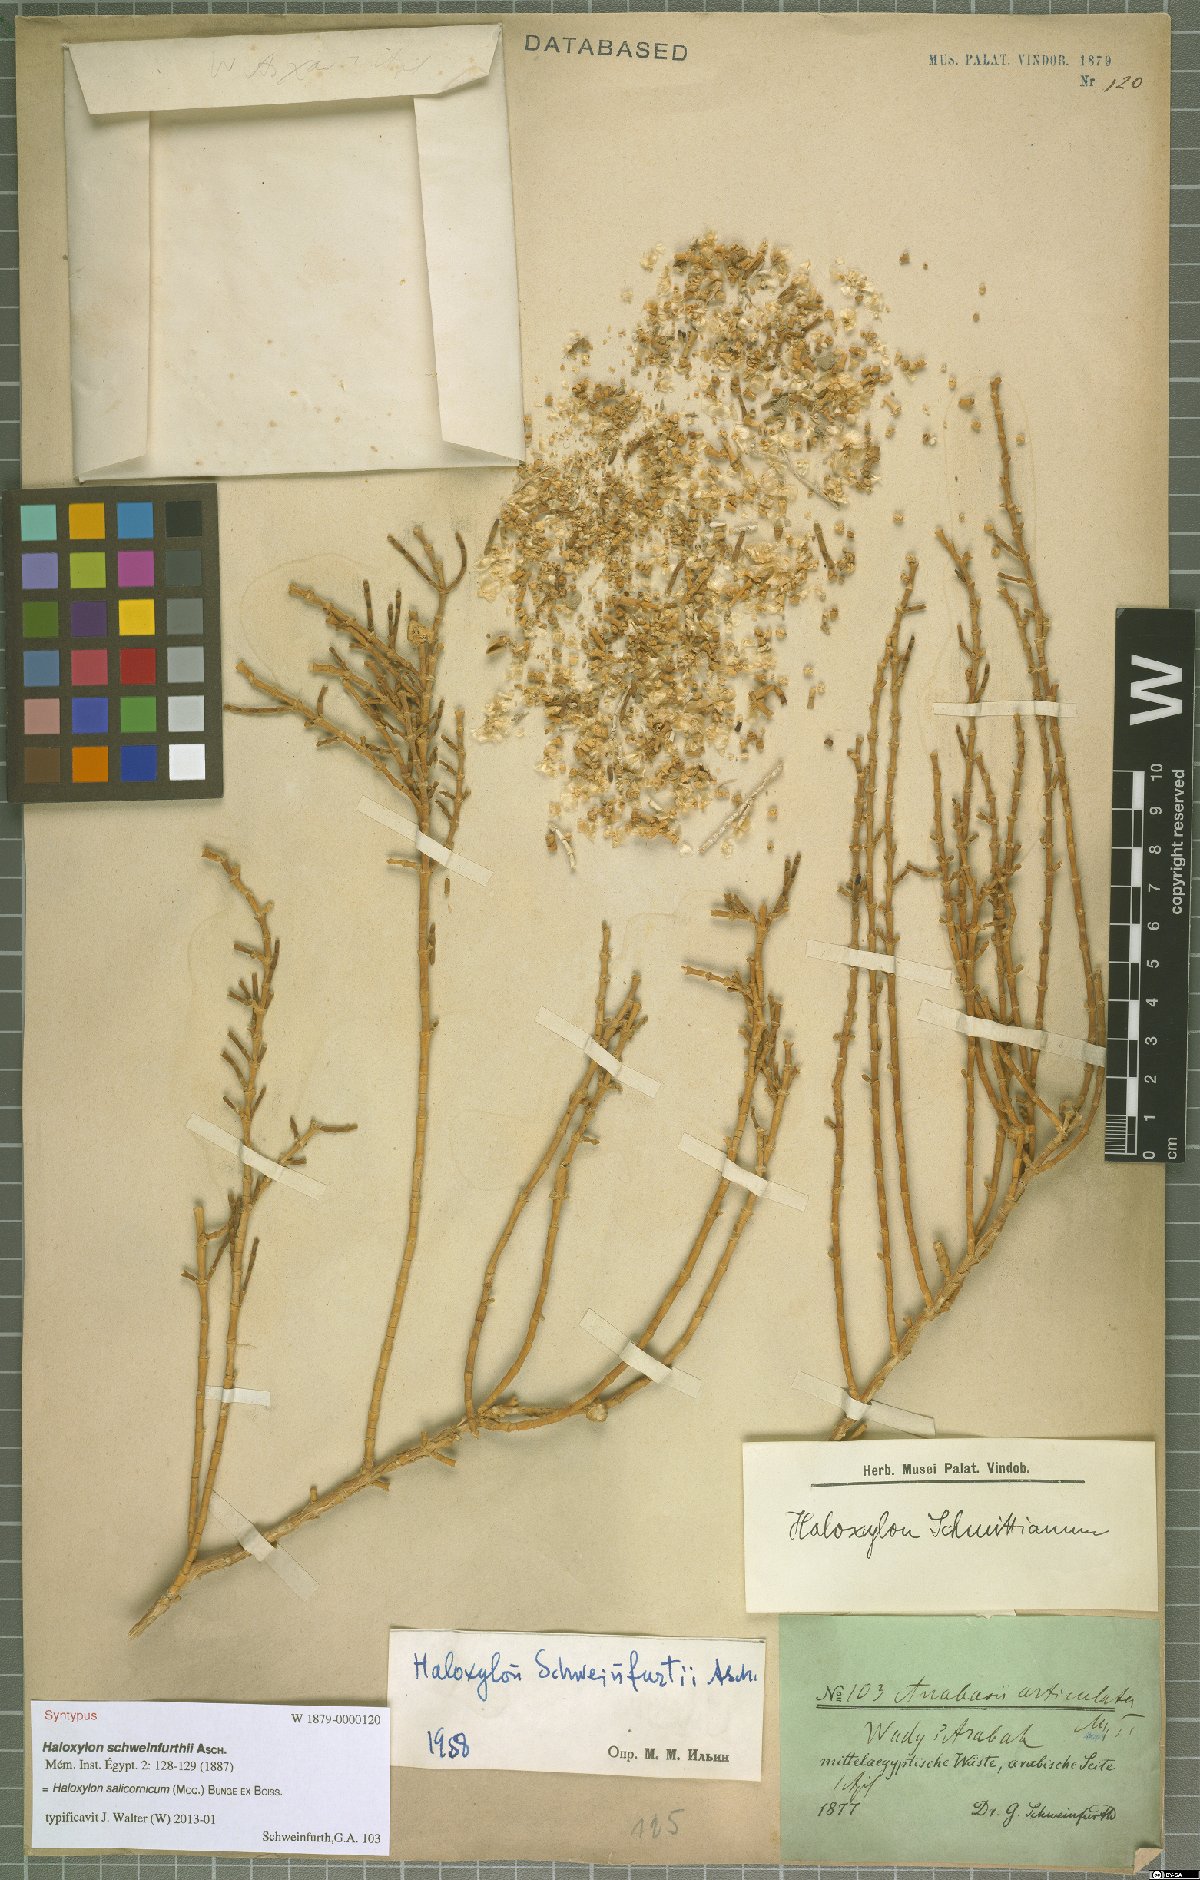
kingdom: Plantae
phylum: Tracheophyta
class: Magnoliopsida
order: Caryophyllales
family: Amaranthaceae
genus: Haloxylon
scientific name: Haloxylon salicornicum
